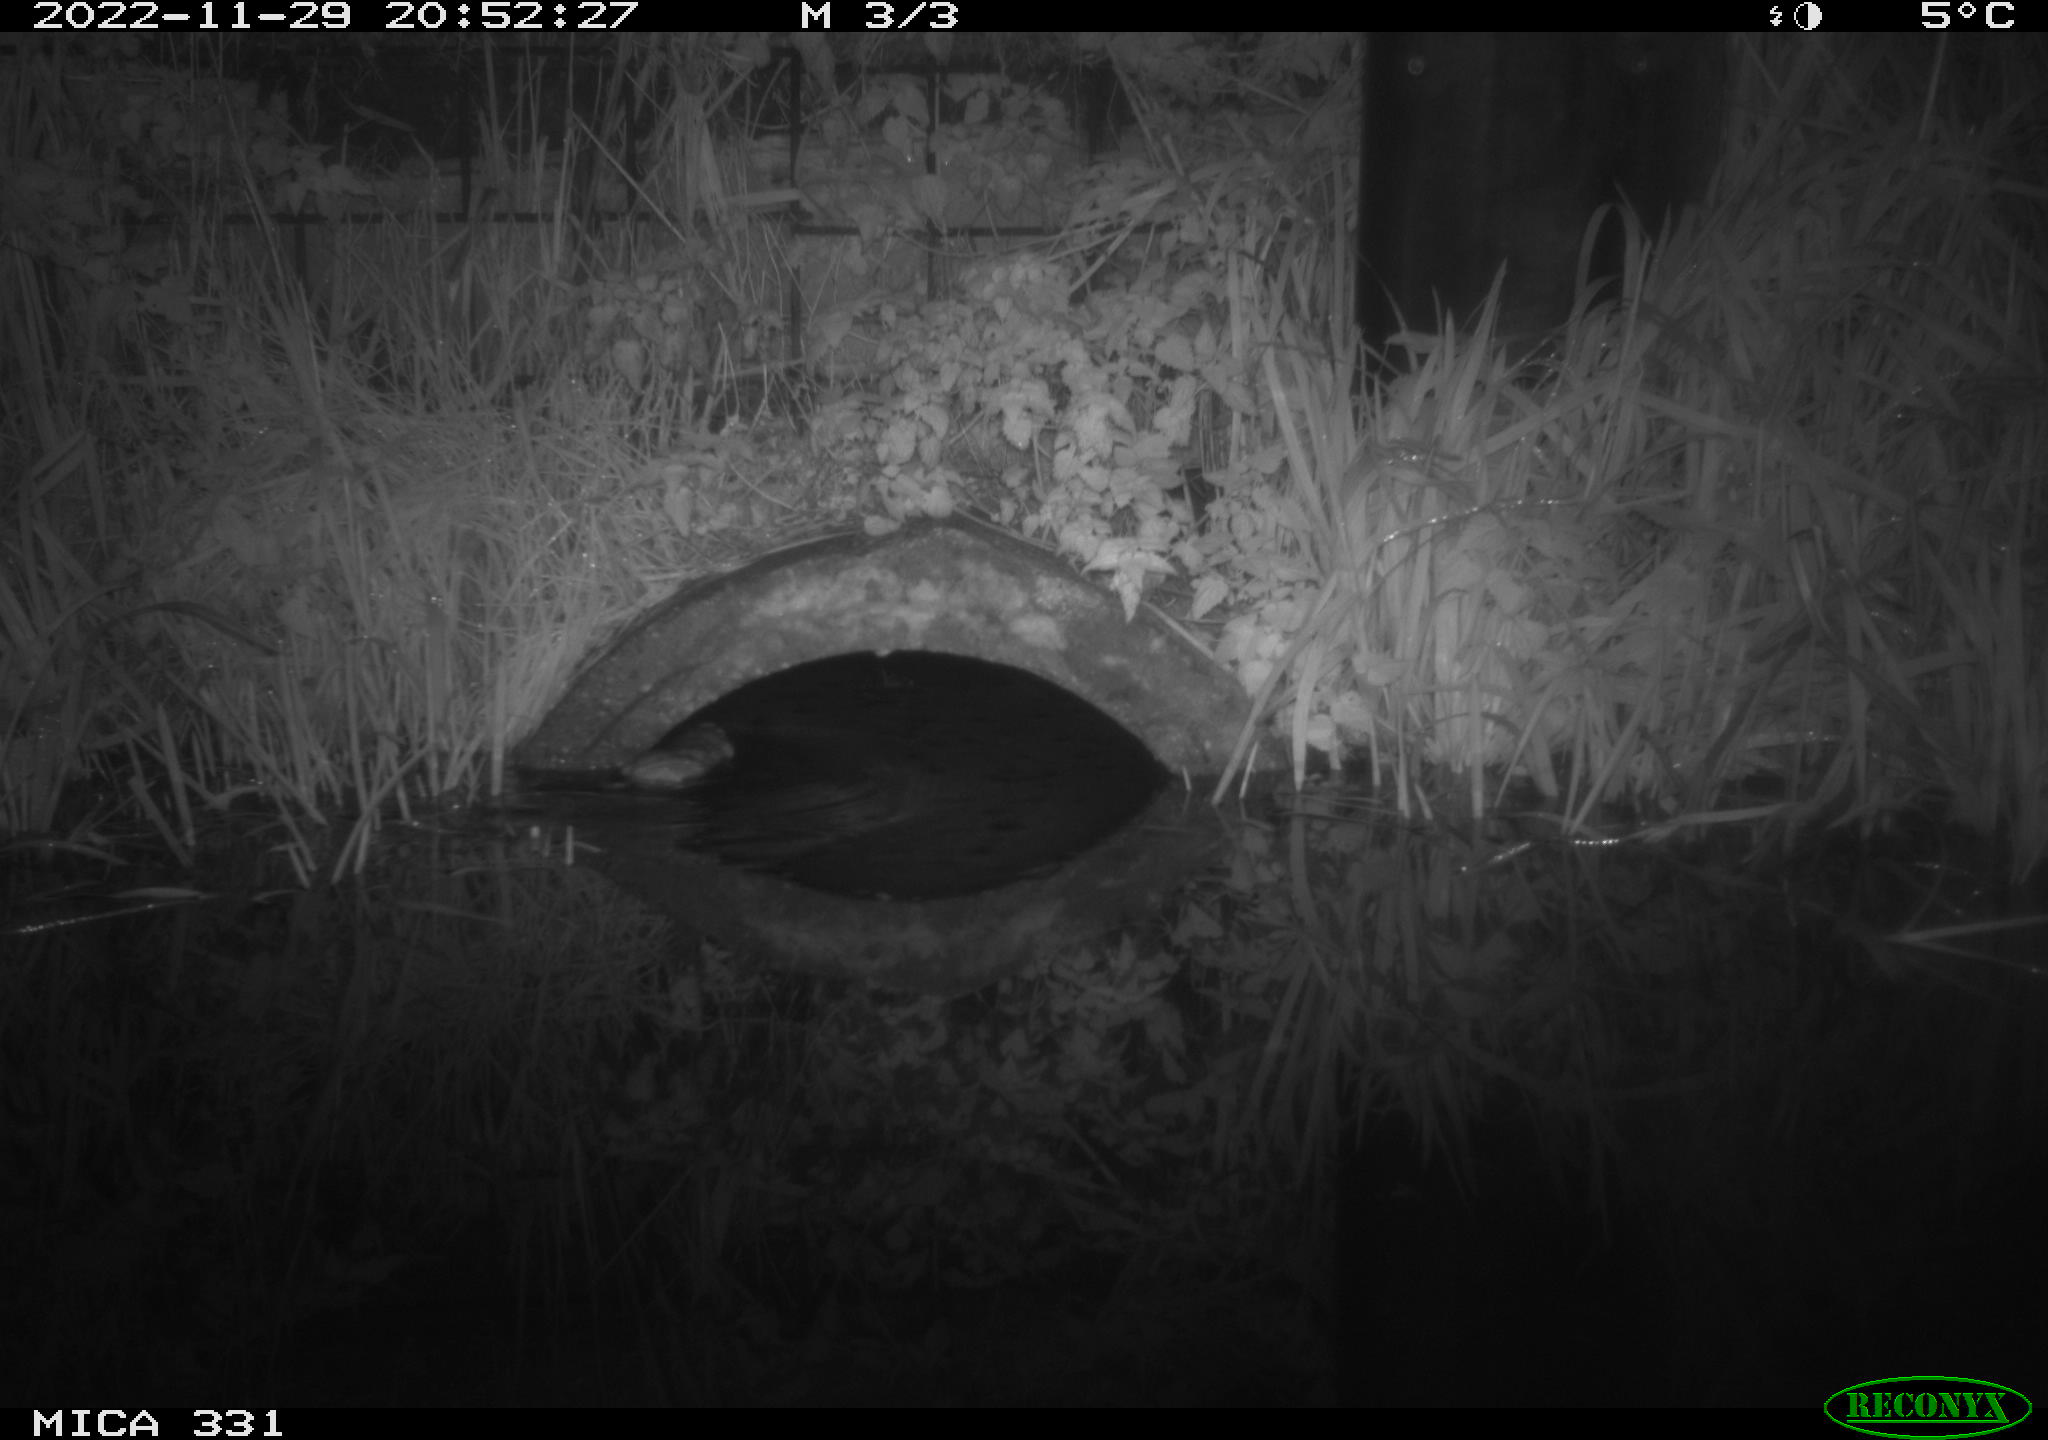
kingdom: Animalia
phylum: Chordata
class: Mammalia
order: Rodentia
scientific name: Rodentia
